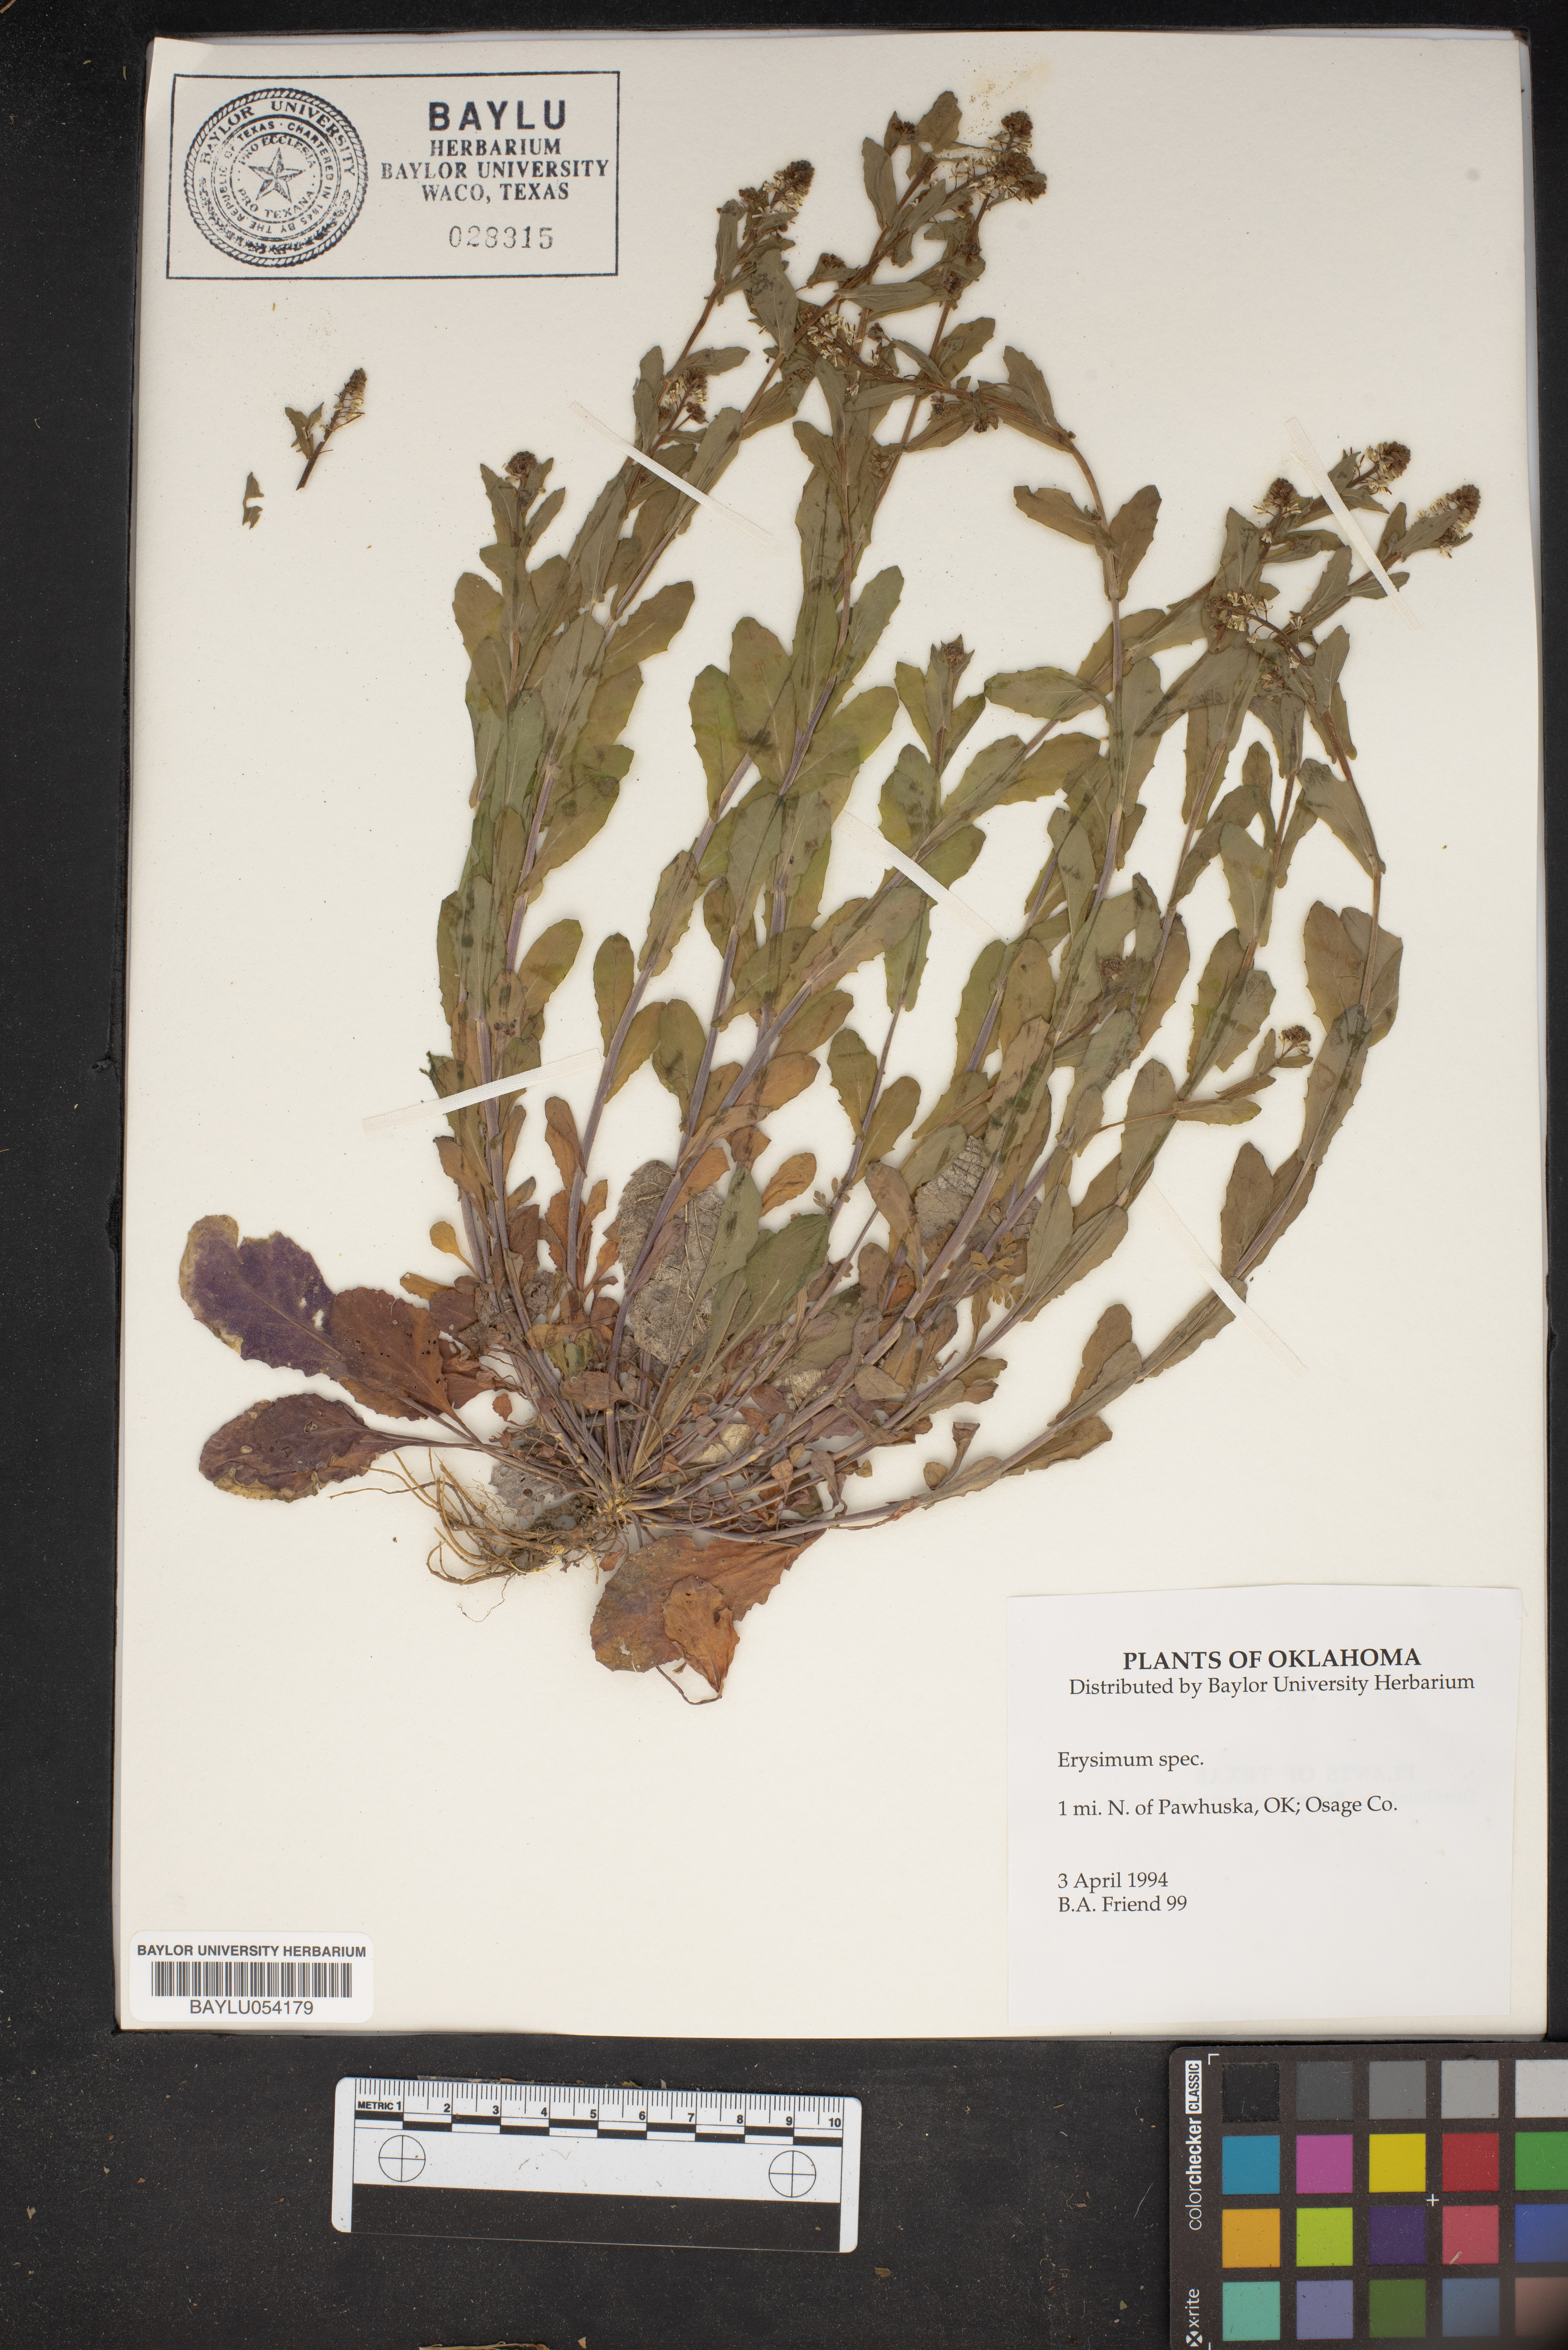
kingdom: Plantae
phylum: Tracheophyta
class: Magnoliopsida
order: Brassicales
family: Brassicaceae
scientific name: Brassicaceae
